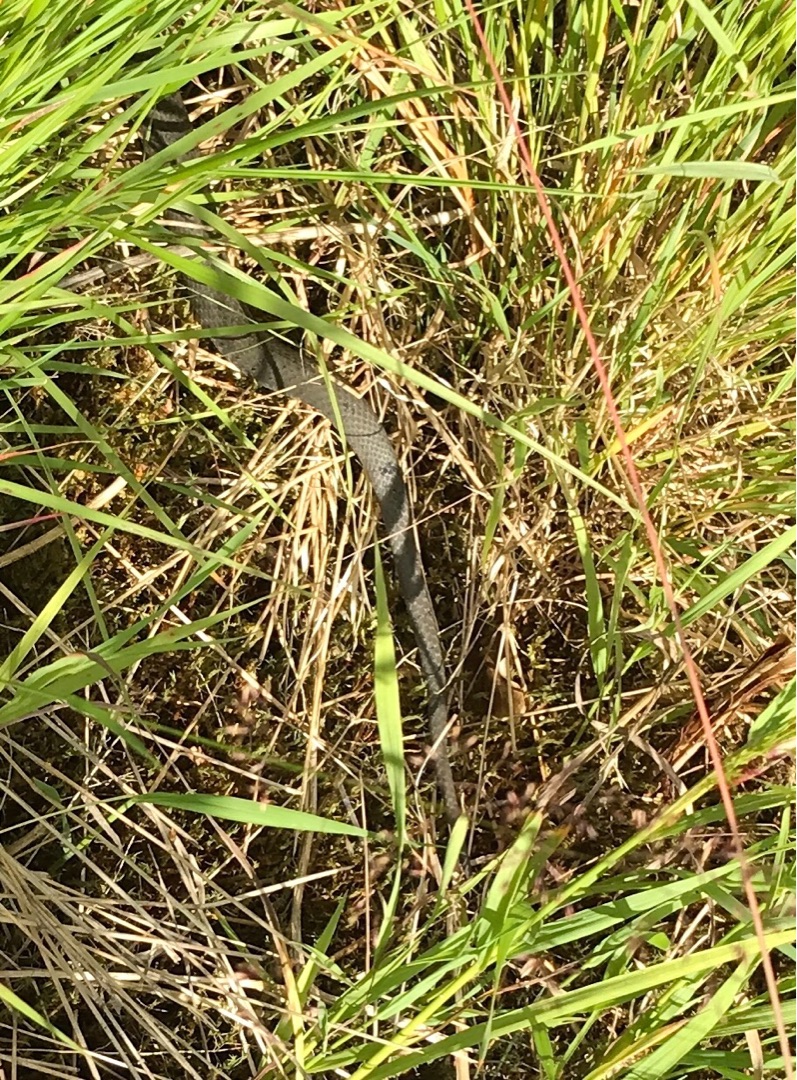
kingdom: Animalia
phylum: Chordata
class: Squamata
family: Colubridae
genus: Natrix
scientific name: Natrix natrix
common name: Snog
